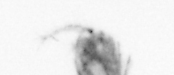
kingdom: Animalia
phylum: Arthropoda
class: Copepoda
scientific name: Copepoda
